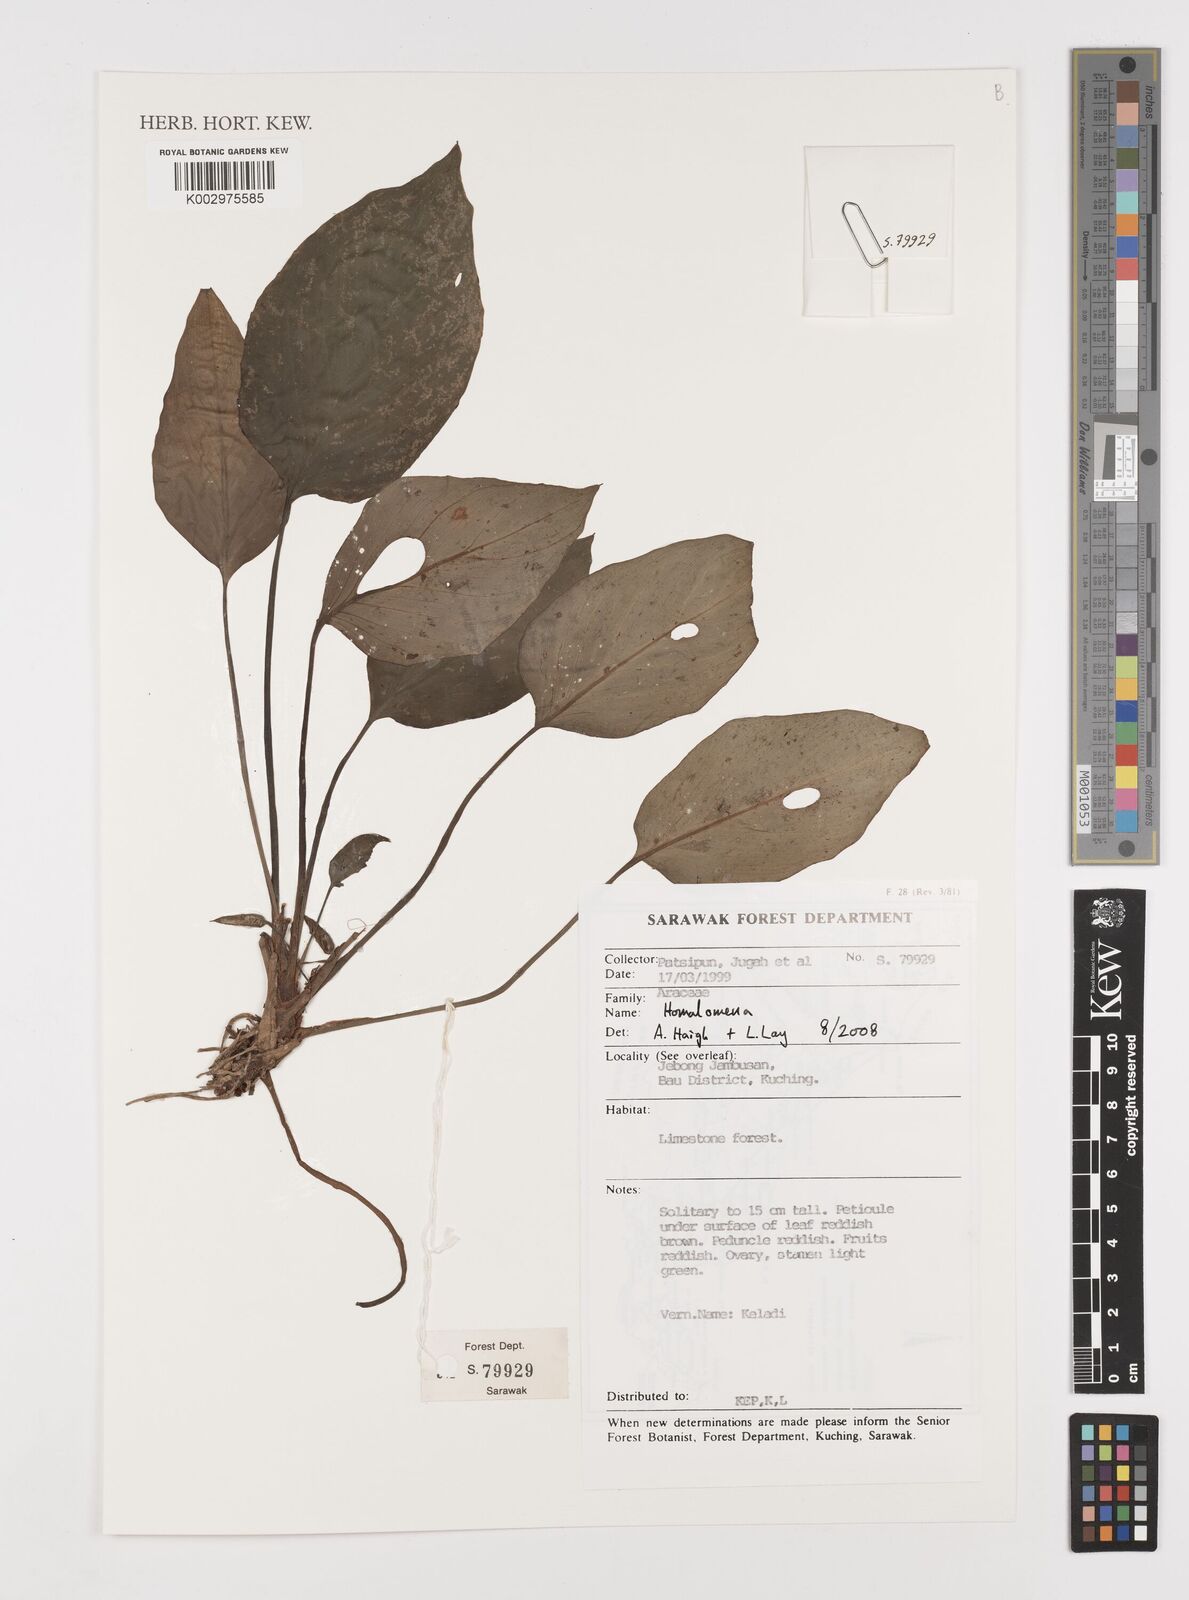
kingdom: Plantae
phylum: Tracheophyta
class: Liliopsida
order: Alismatales
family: Araceae
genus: Homalomena
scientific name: Homalomena
